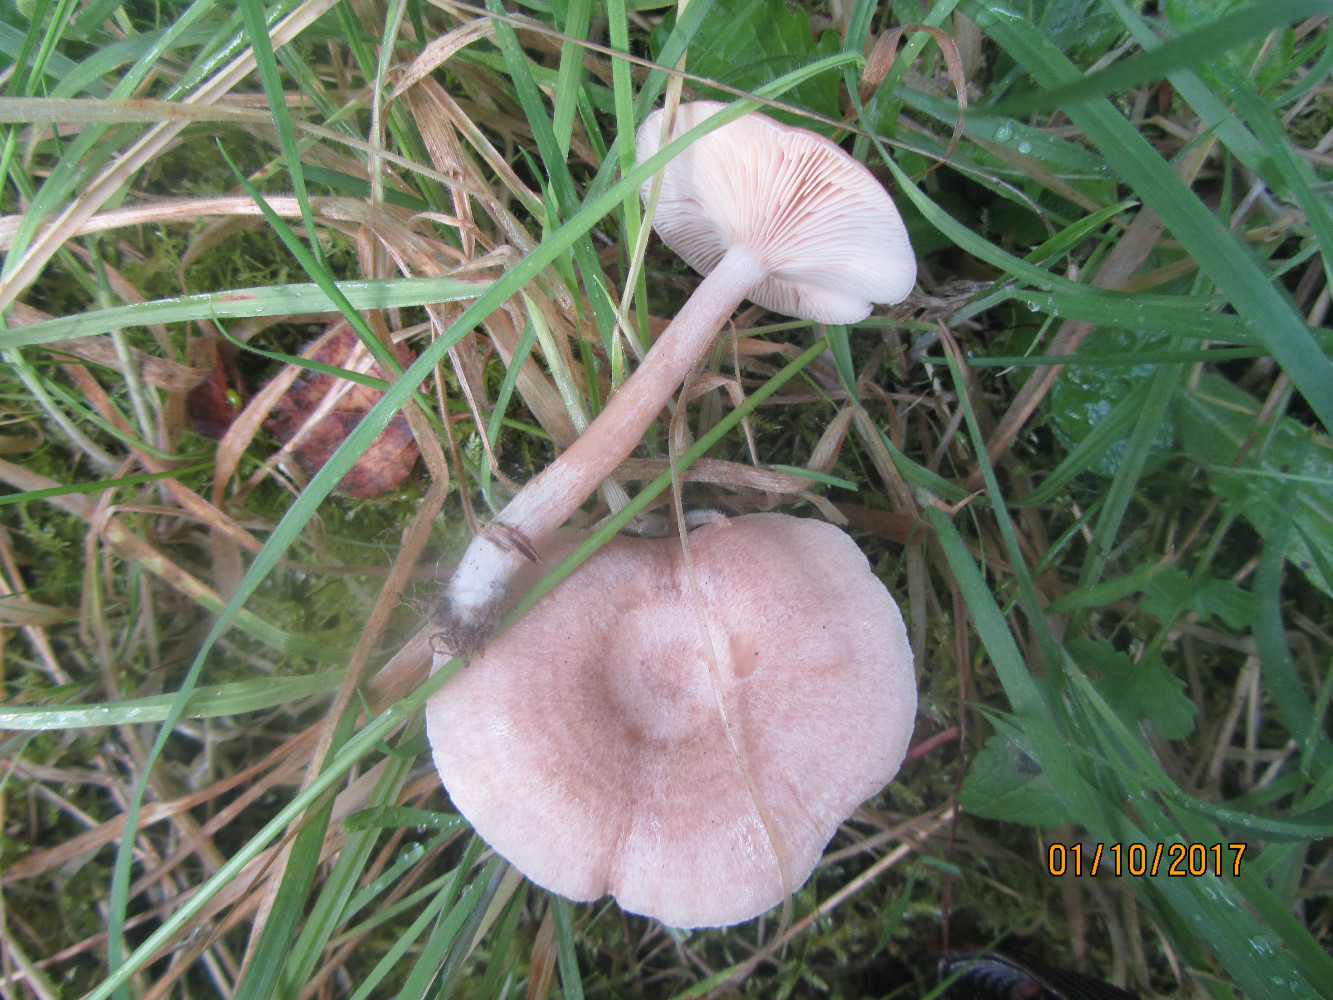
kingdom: Fungi
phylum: Basidiomycota
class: Agaricomycetes
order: Russulales
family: Russulaceae
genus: Lactarius
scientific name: Lactarius glyciosmus
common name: kokos-mælkehat
